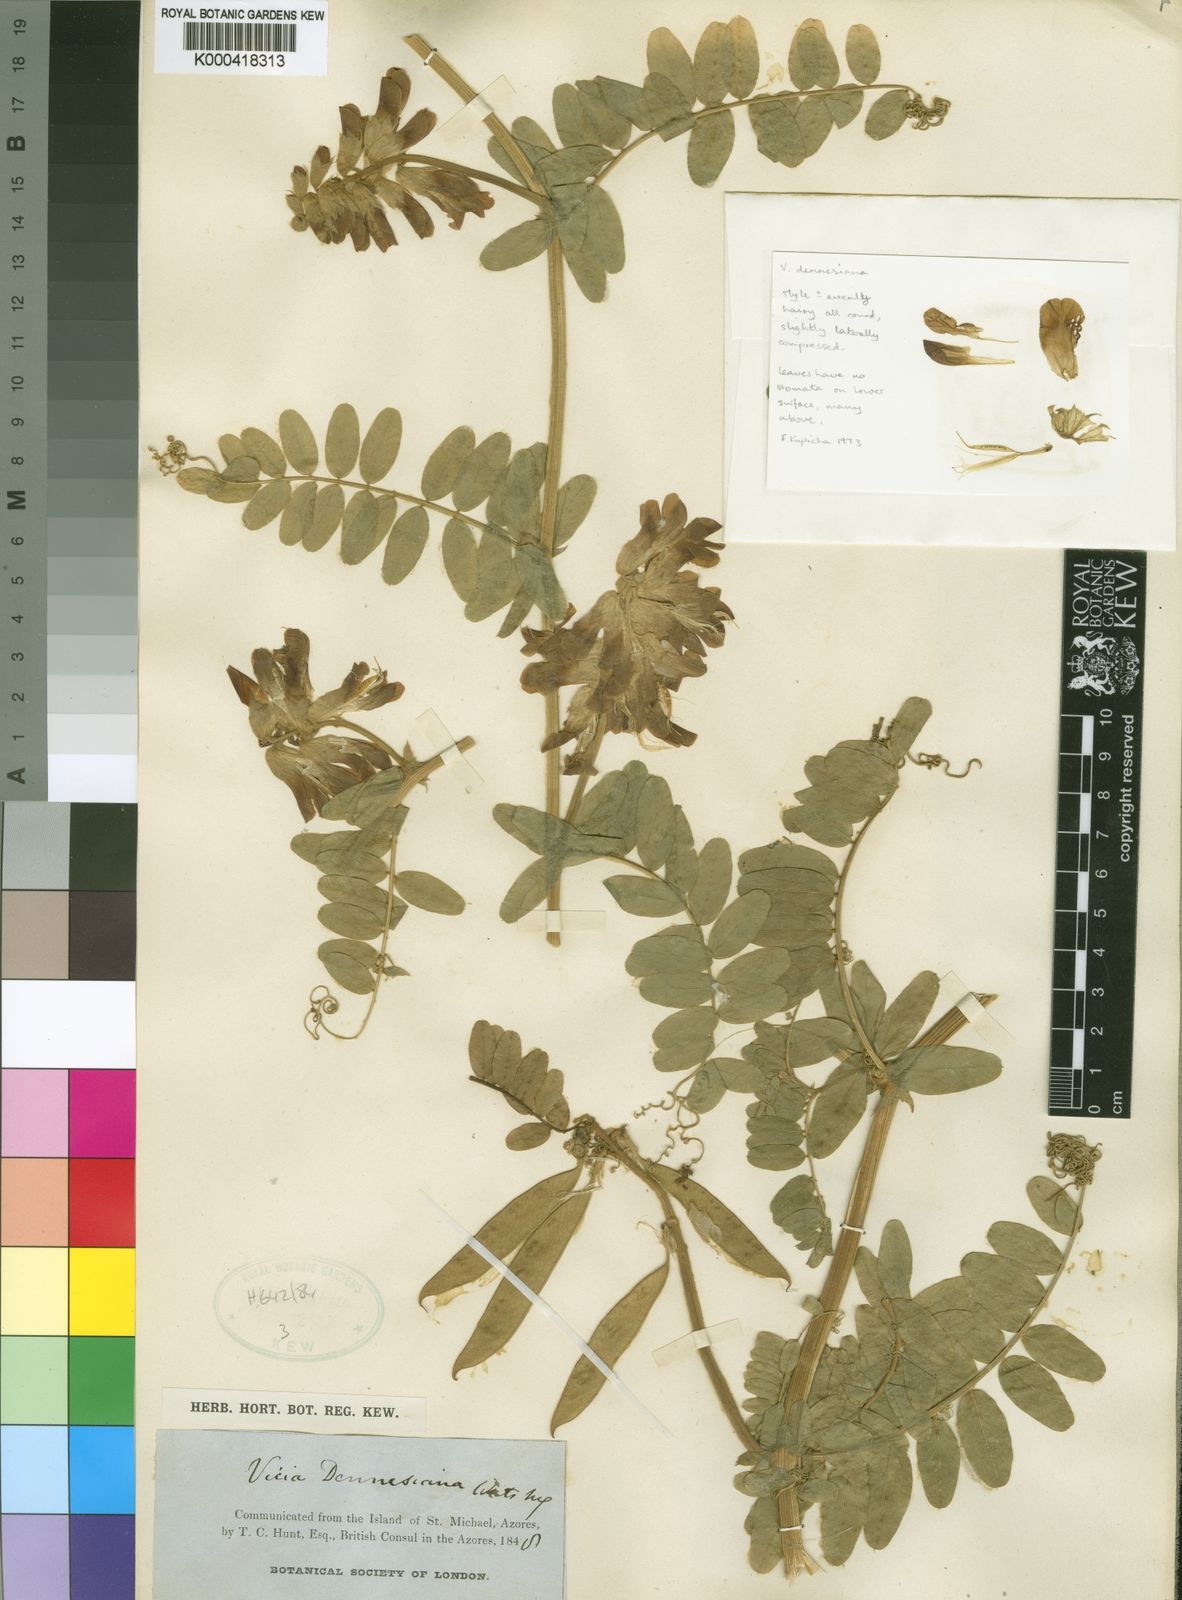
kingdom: Plantae
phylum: Tracheophyta
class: Magnoliopsida
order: Fabales
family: Fabaceae
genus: Vicia
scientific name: Vicia dennesiana
